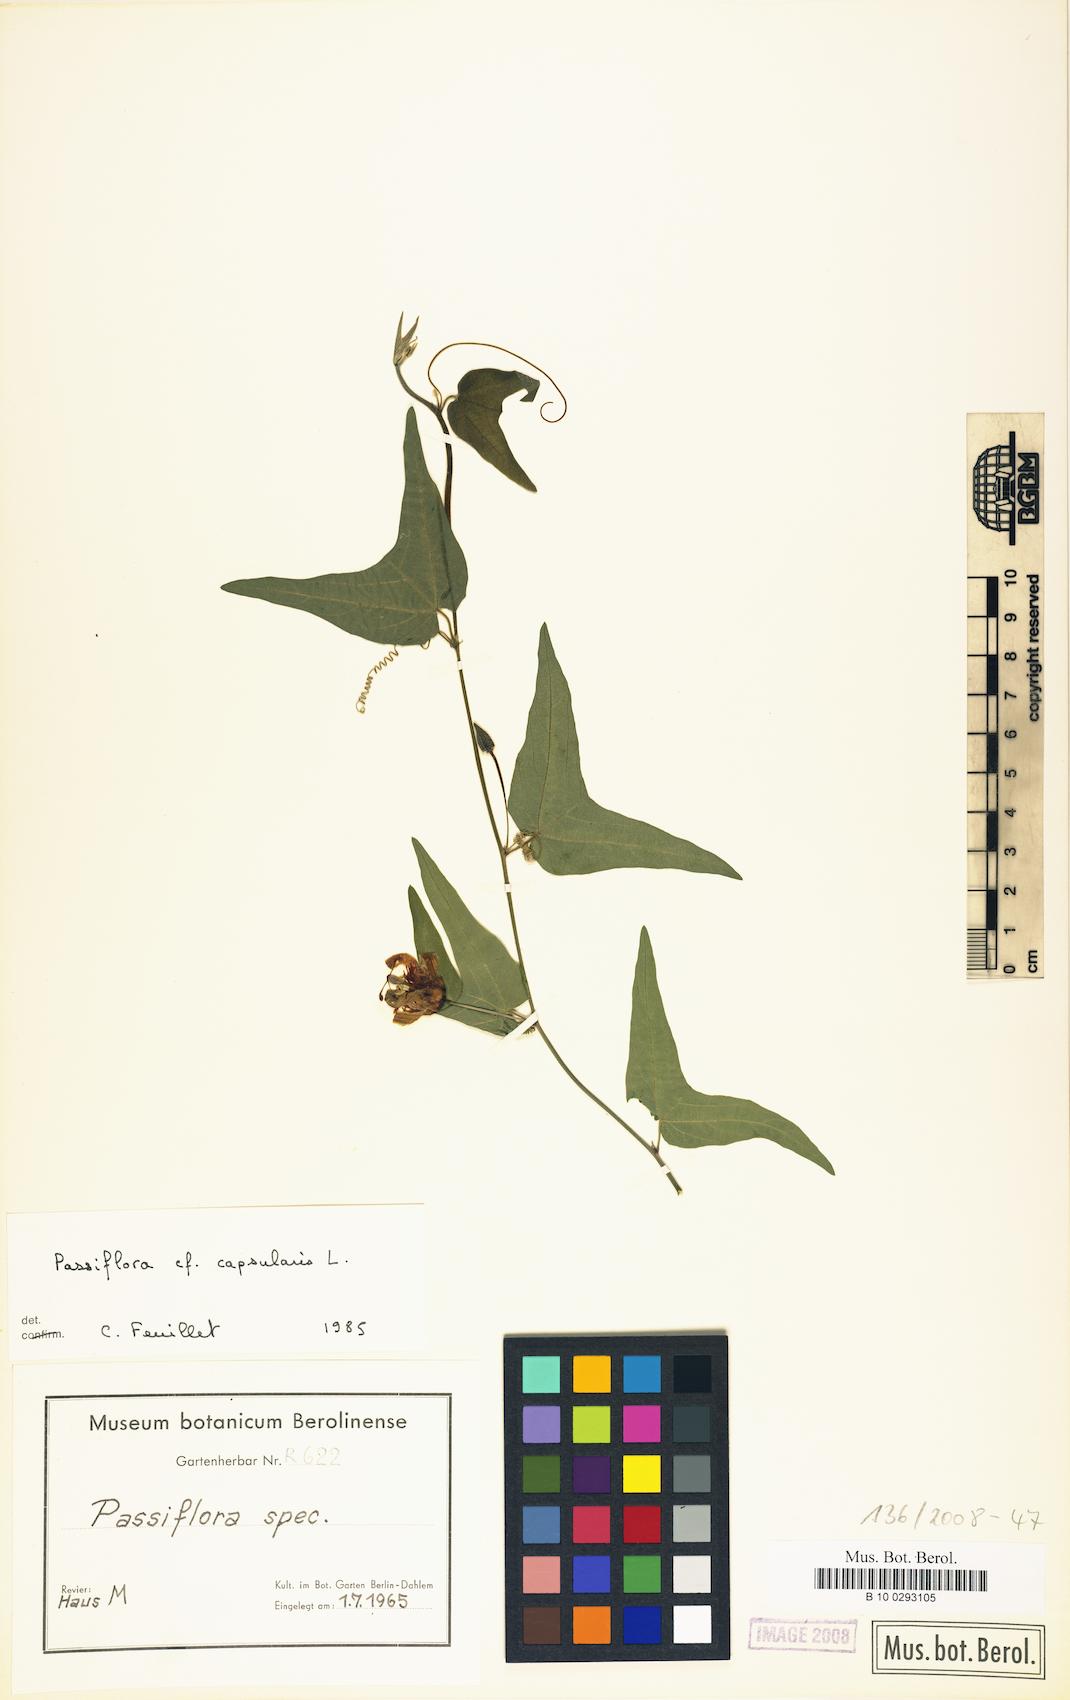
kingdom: Plantae
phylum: Tracheophyta
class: Magnoliopsida
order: Malpighiales
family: Passifloraceae
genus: Passiflora
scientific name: Passiflora capsularis
